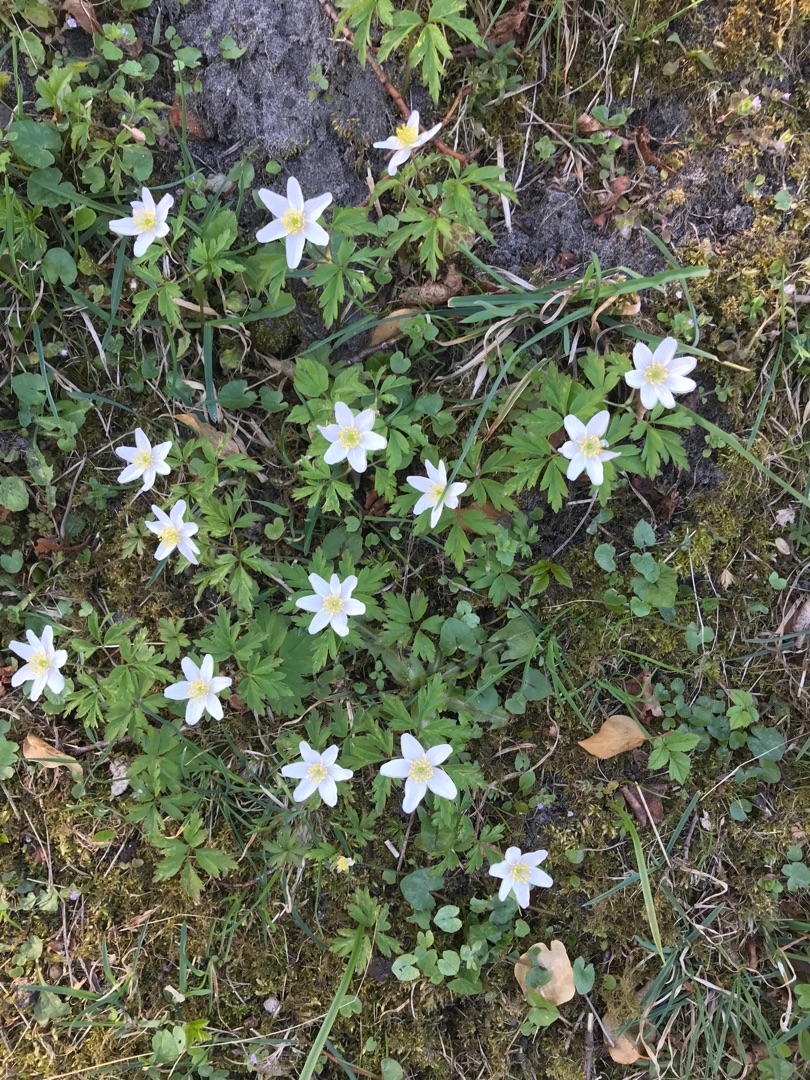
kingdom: Plantae
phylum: Tracheophyta
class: Magnoliopsida
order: Ranunculales
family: Ranunculaceae
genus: Anemone
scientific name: Anemone nemorosa
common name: Hvid anemone
